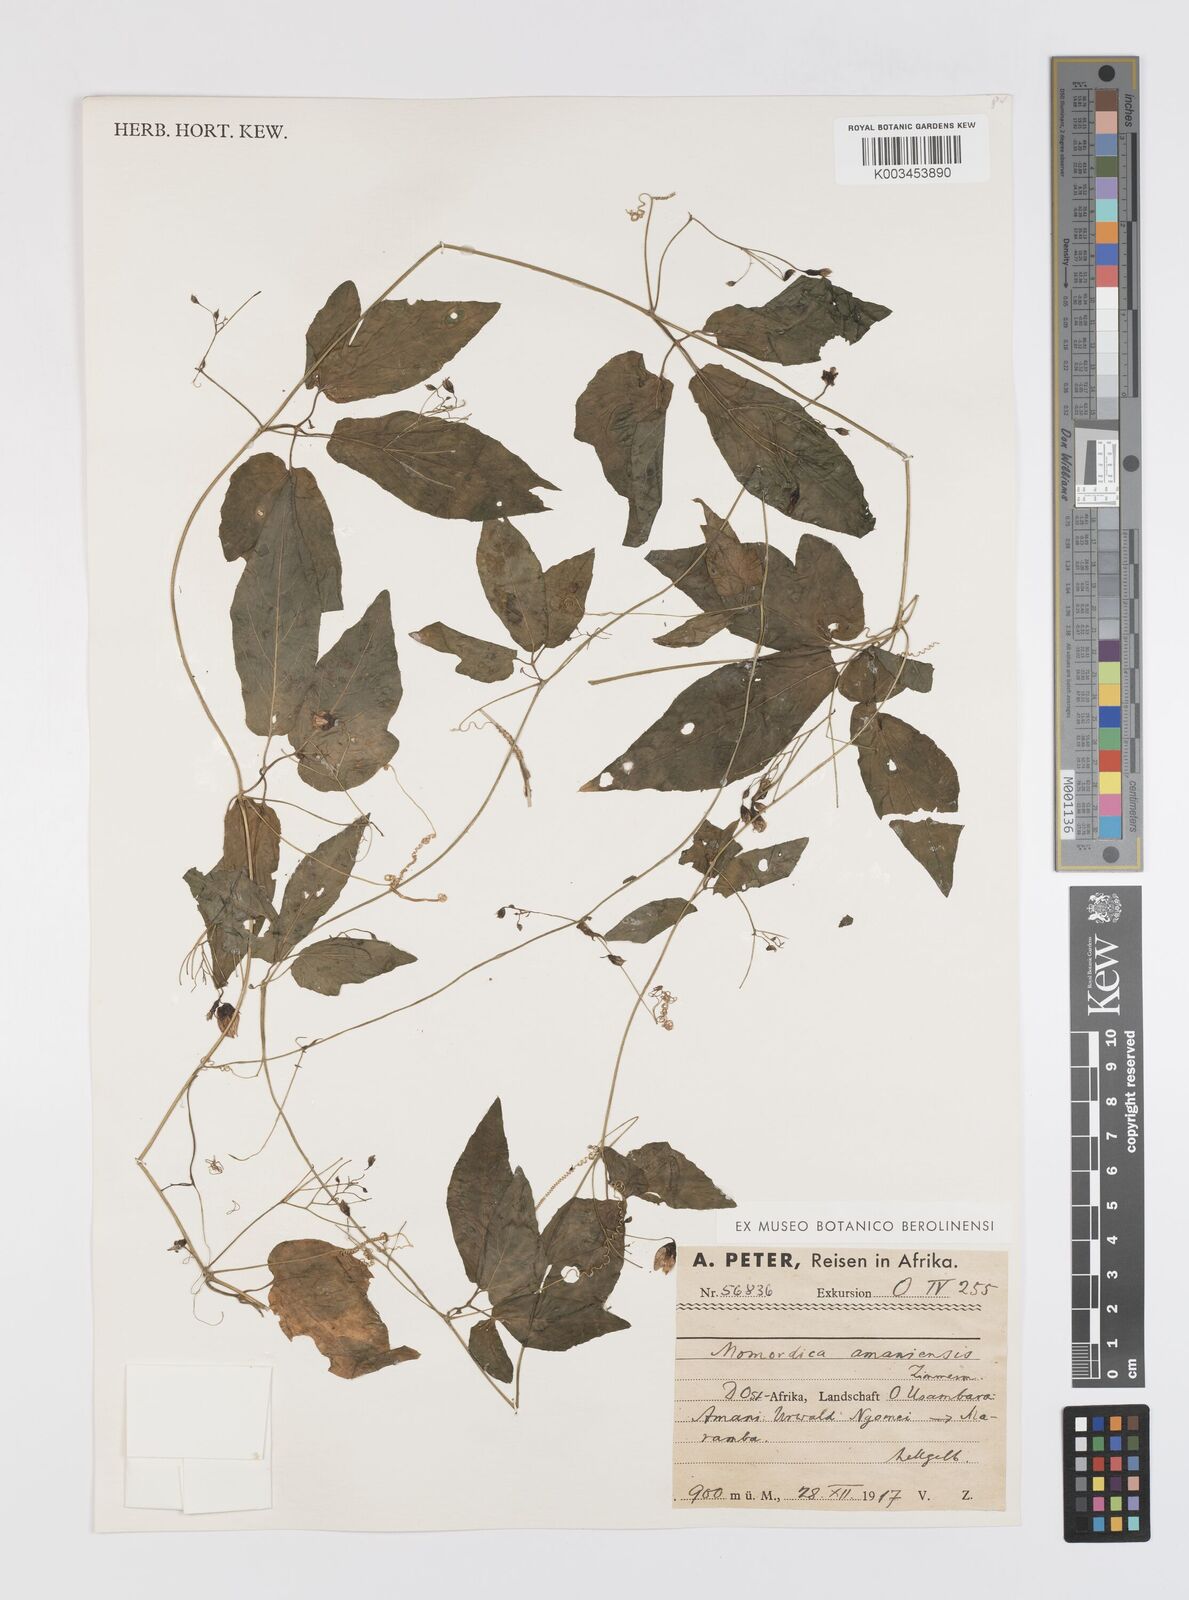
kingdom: Plantae
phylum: Tracheophyta
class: Magnoliopsida
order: Cucurbitales
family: Cucurbitaceae
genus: Momordica
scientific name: Momordica anigosantha
